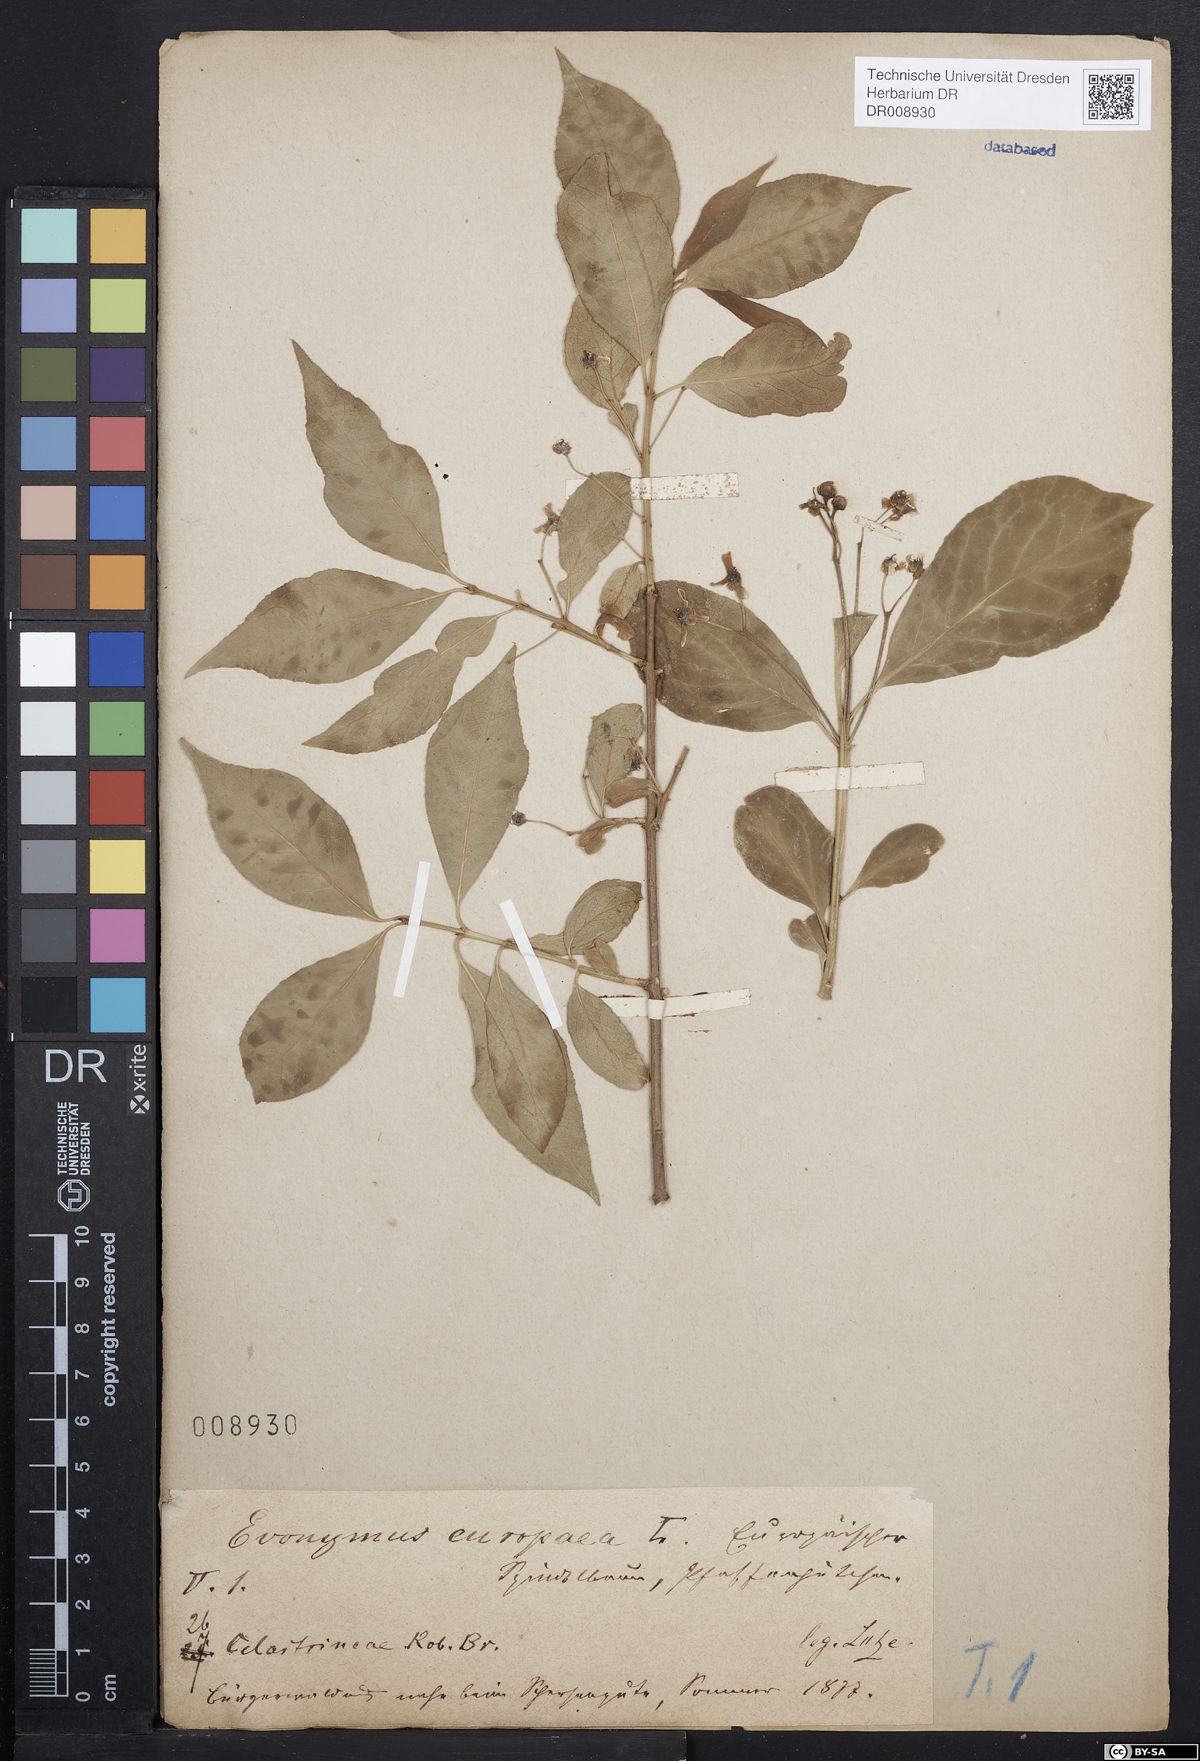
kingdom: Plantae
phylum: Tracheophyta
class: Magnoliopsida
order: Celastrales
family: Celastraceae
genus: Euonymus
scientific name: Euonymus europaeus
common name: Spindle
